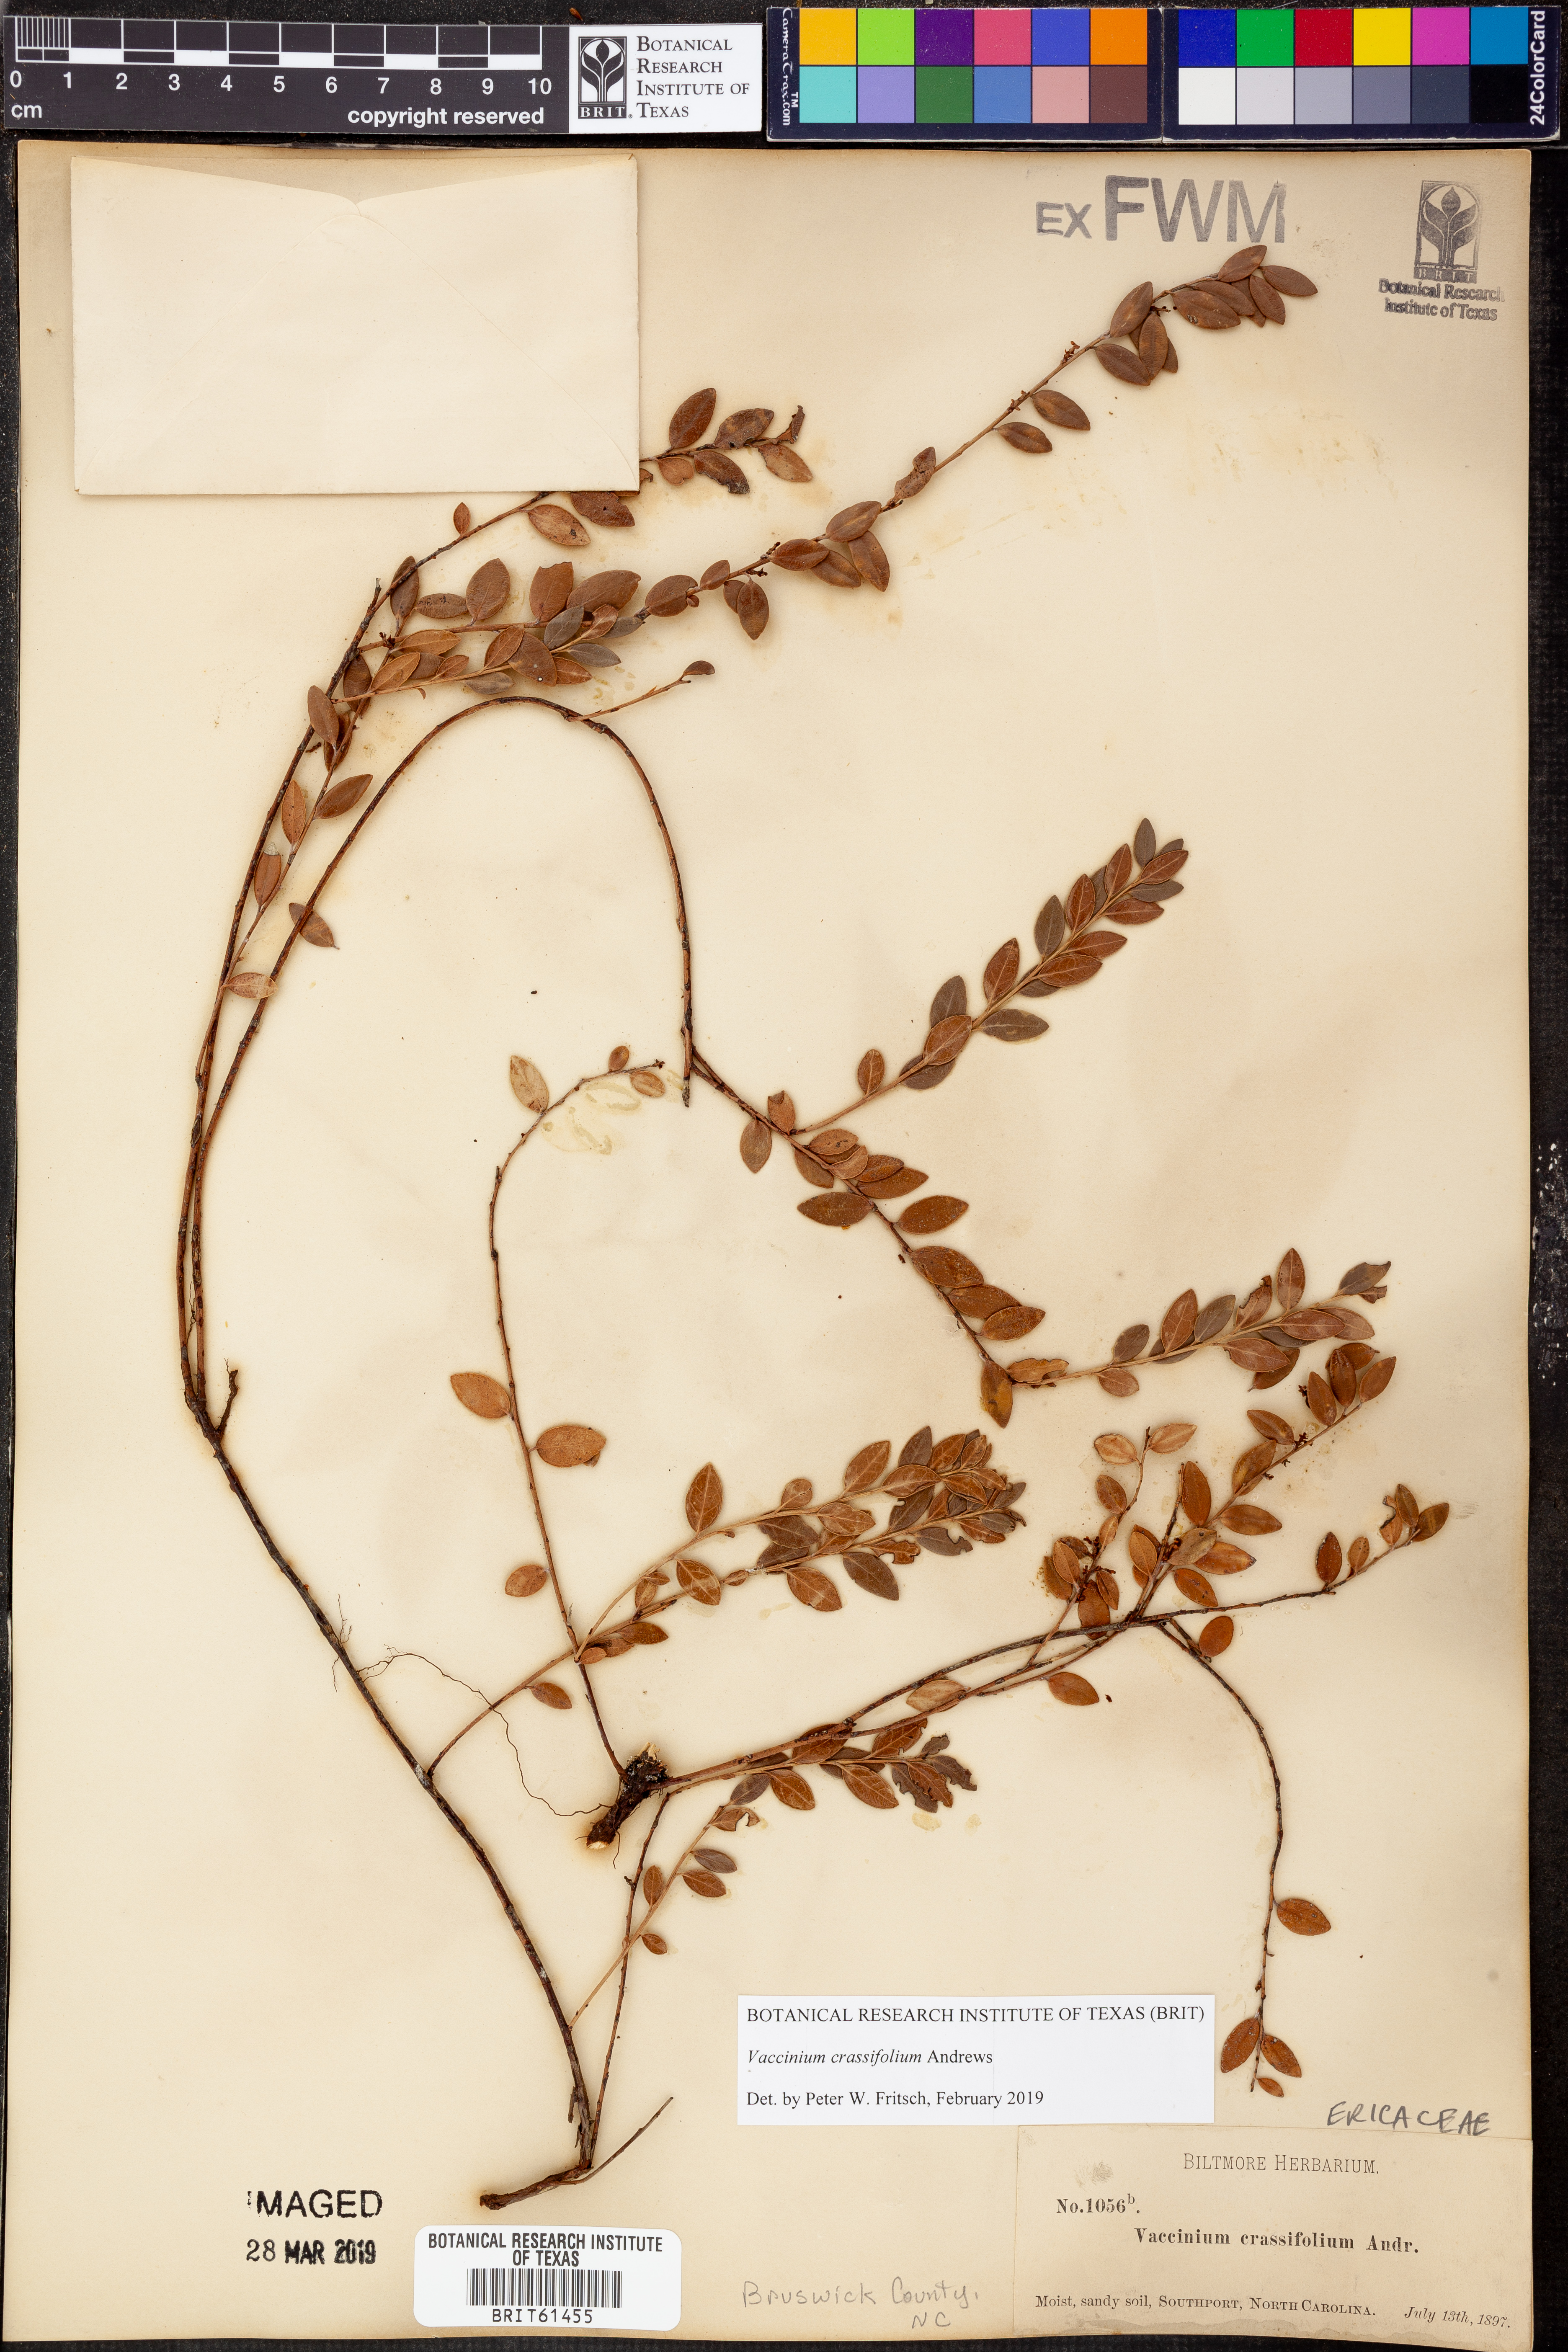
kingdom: Plantae
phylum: Tracheophyta
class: Magnoliopsida
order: Ericales
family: Ericaceae
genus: Vaccinium
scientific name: Vaccinium crassifolium
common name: Creeping blueberry
